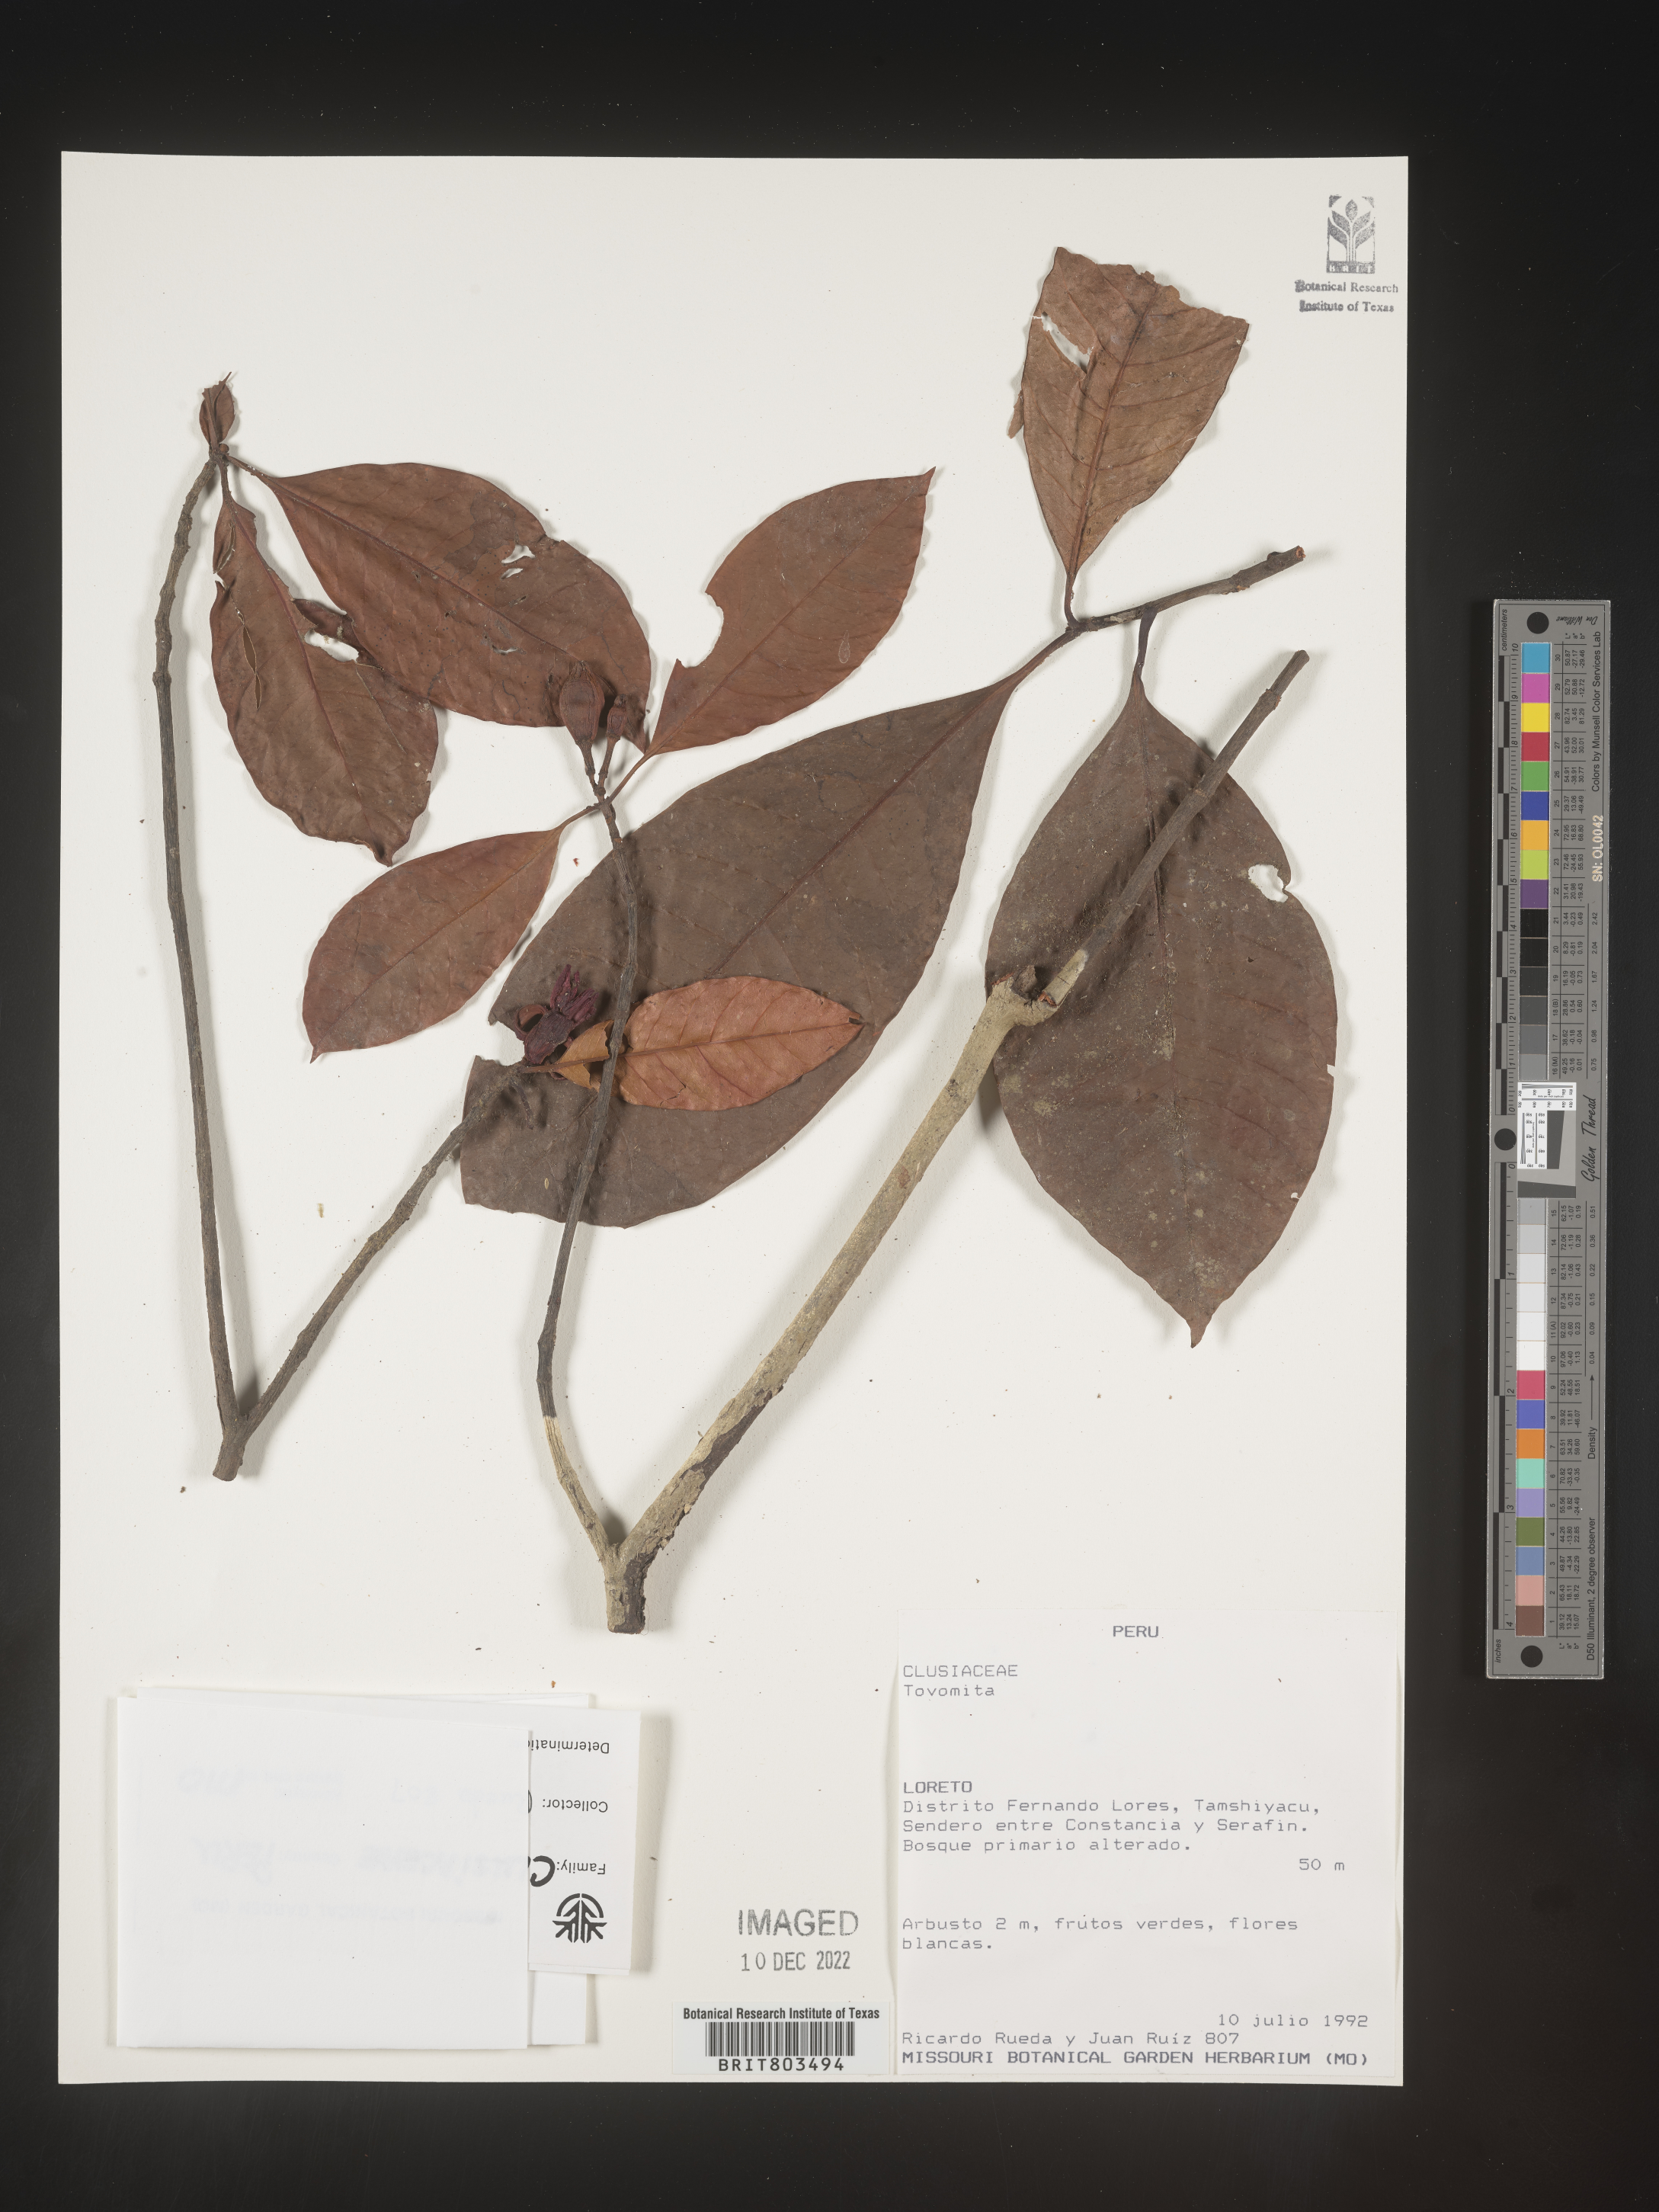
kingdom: Plantae
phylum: Tracheophyta
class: Magnoliopsida
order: Malpighiales
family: Clusiaceae
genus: Tovomita
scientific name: Tovomita
